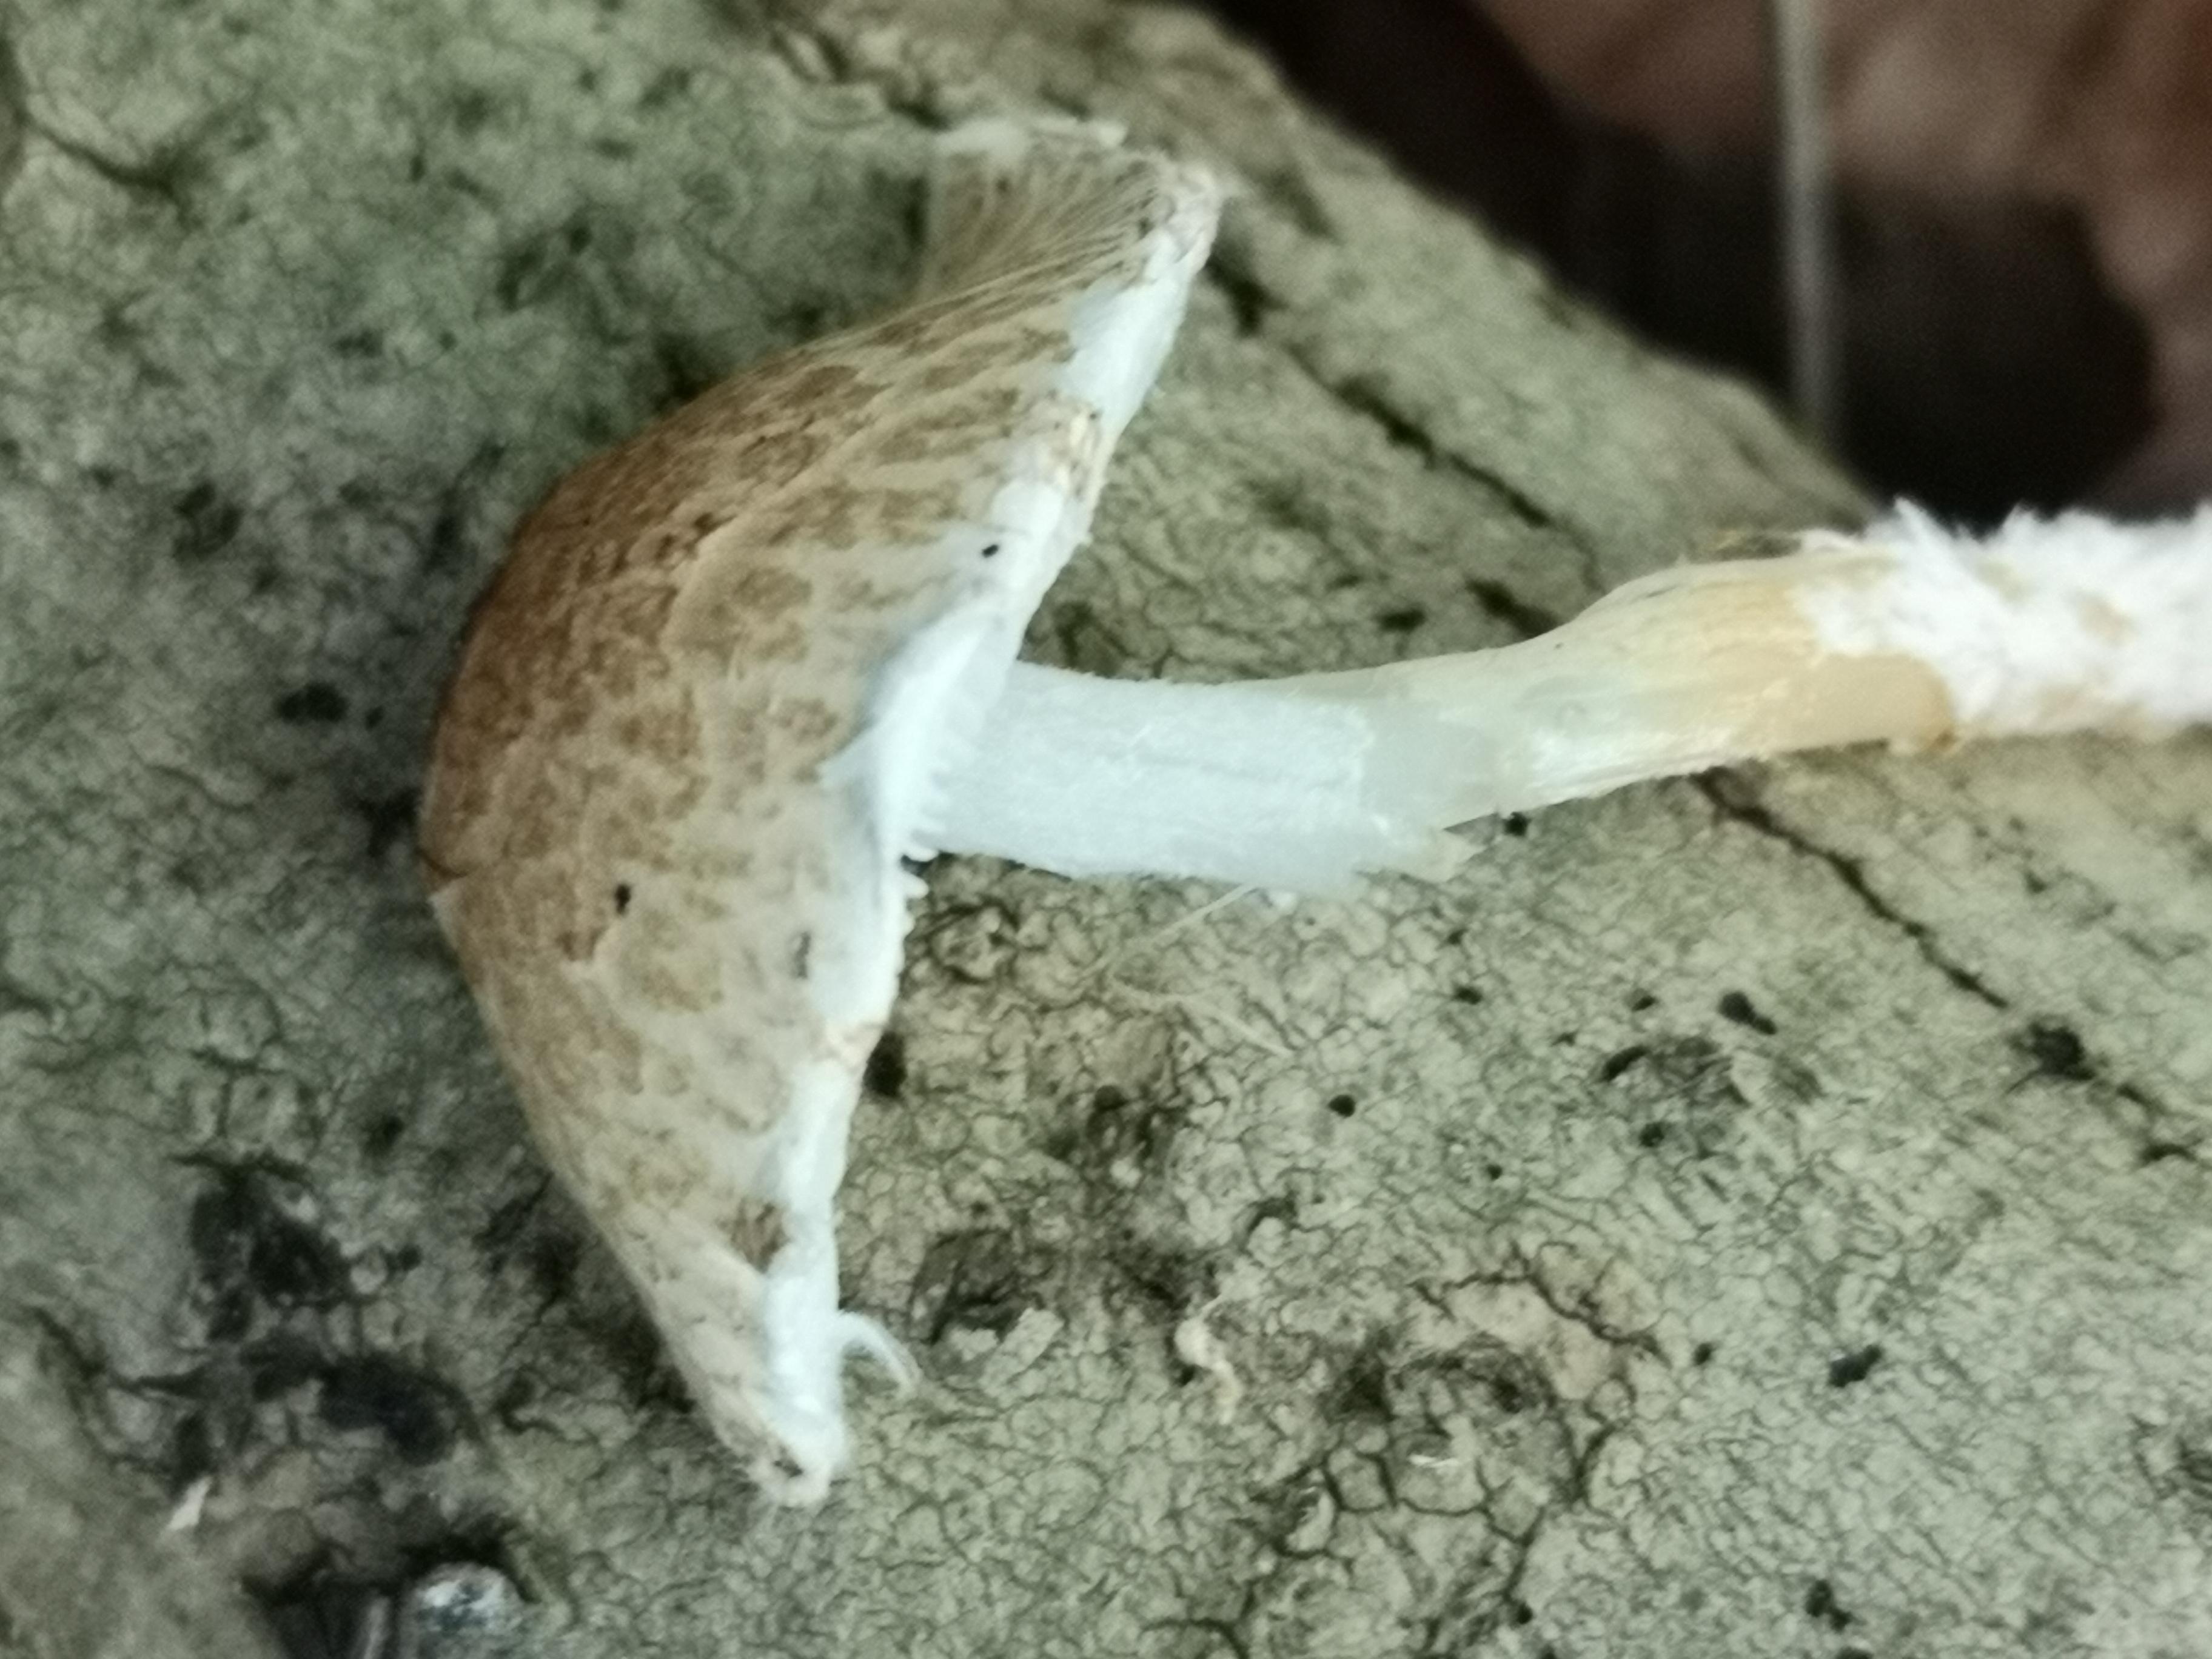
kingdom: Fungi
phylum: Basidiomycota
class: Agaricomycetes
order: Agaricales
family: Agaricaceae
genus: Lepiota
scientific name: Lepiota clypeolaria
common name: flosset parasolhat
